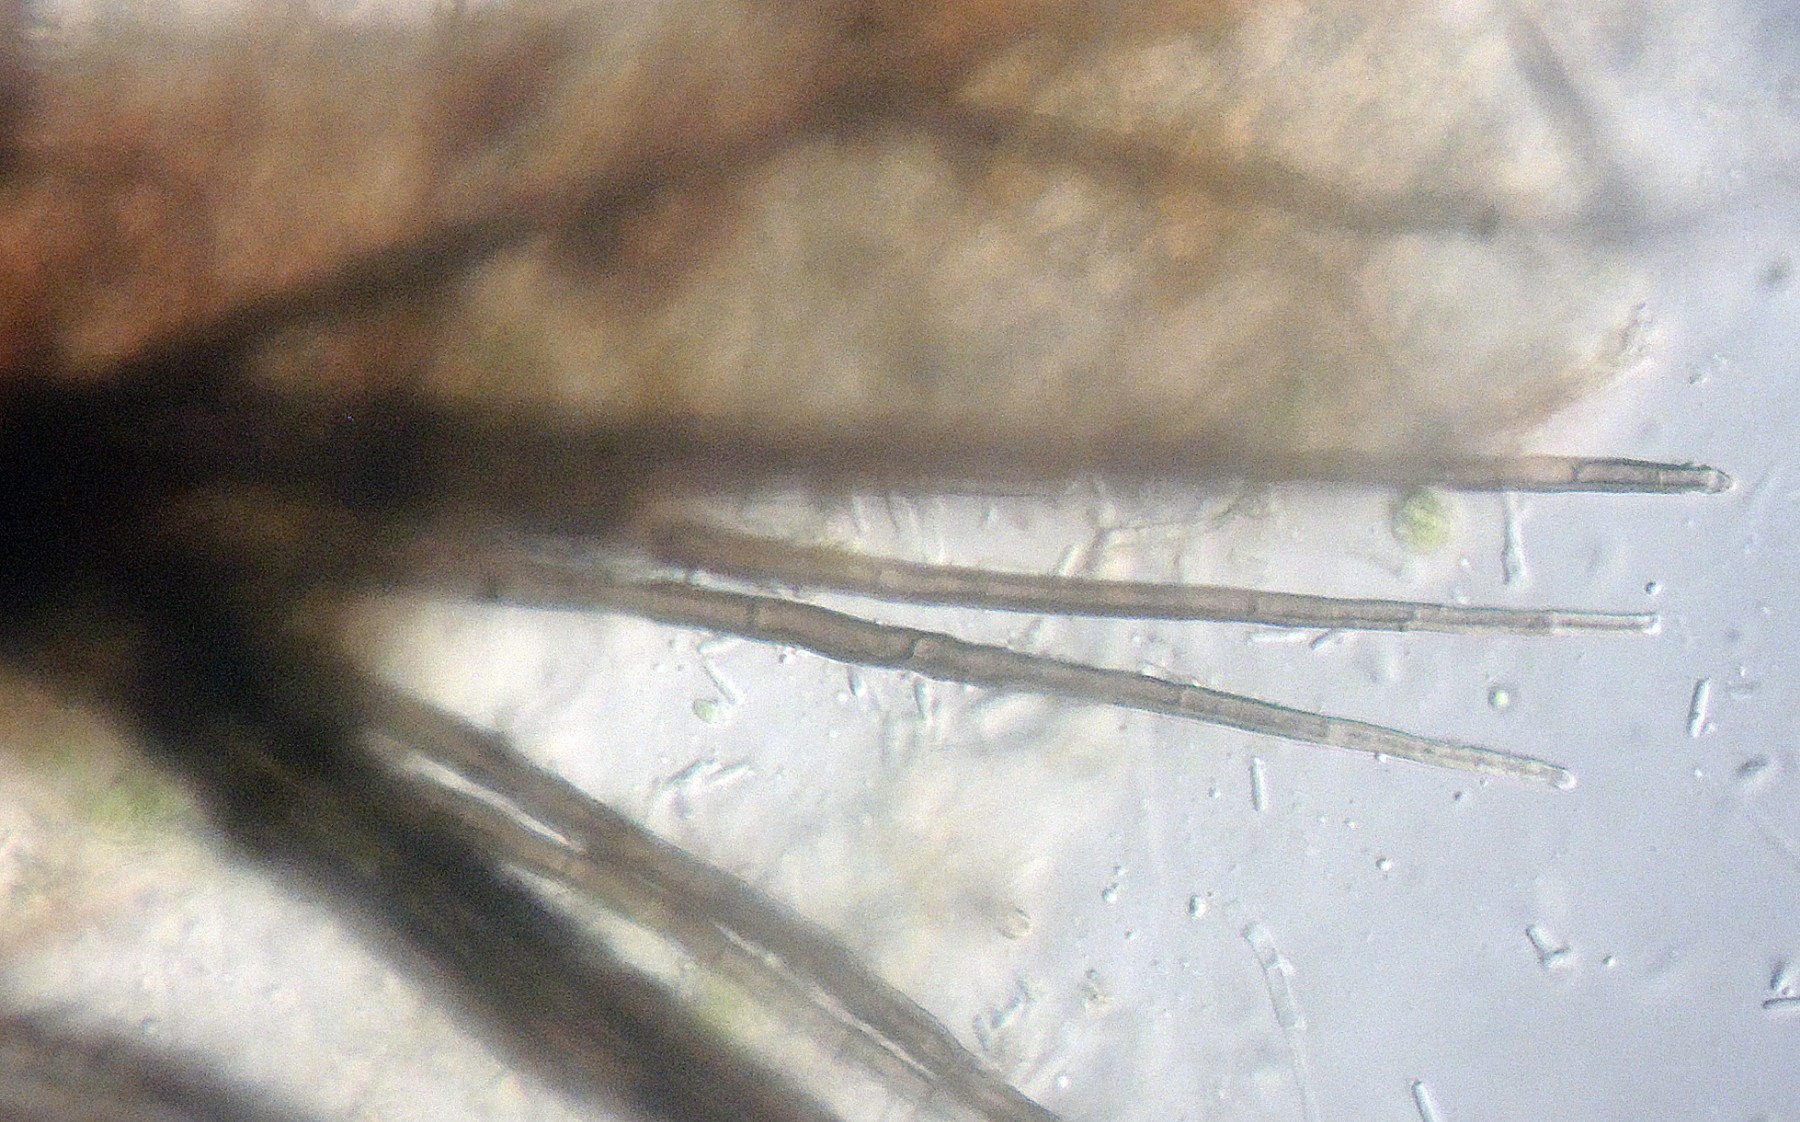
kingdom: Fungi
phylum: Ascomycota
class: Dothideomycetes
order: Pleosporales
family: Cucurbitariaceae
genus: Pyrenochaeta
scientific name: Pyrenochaeta nobilis
